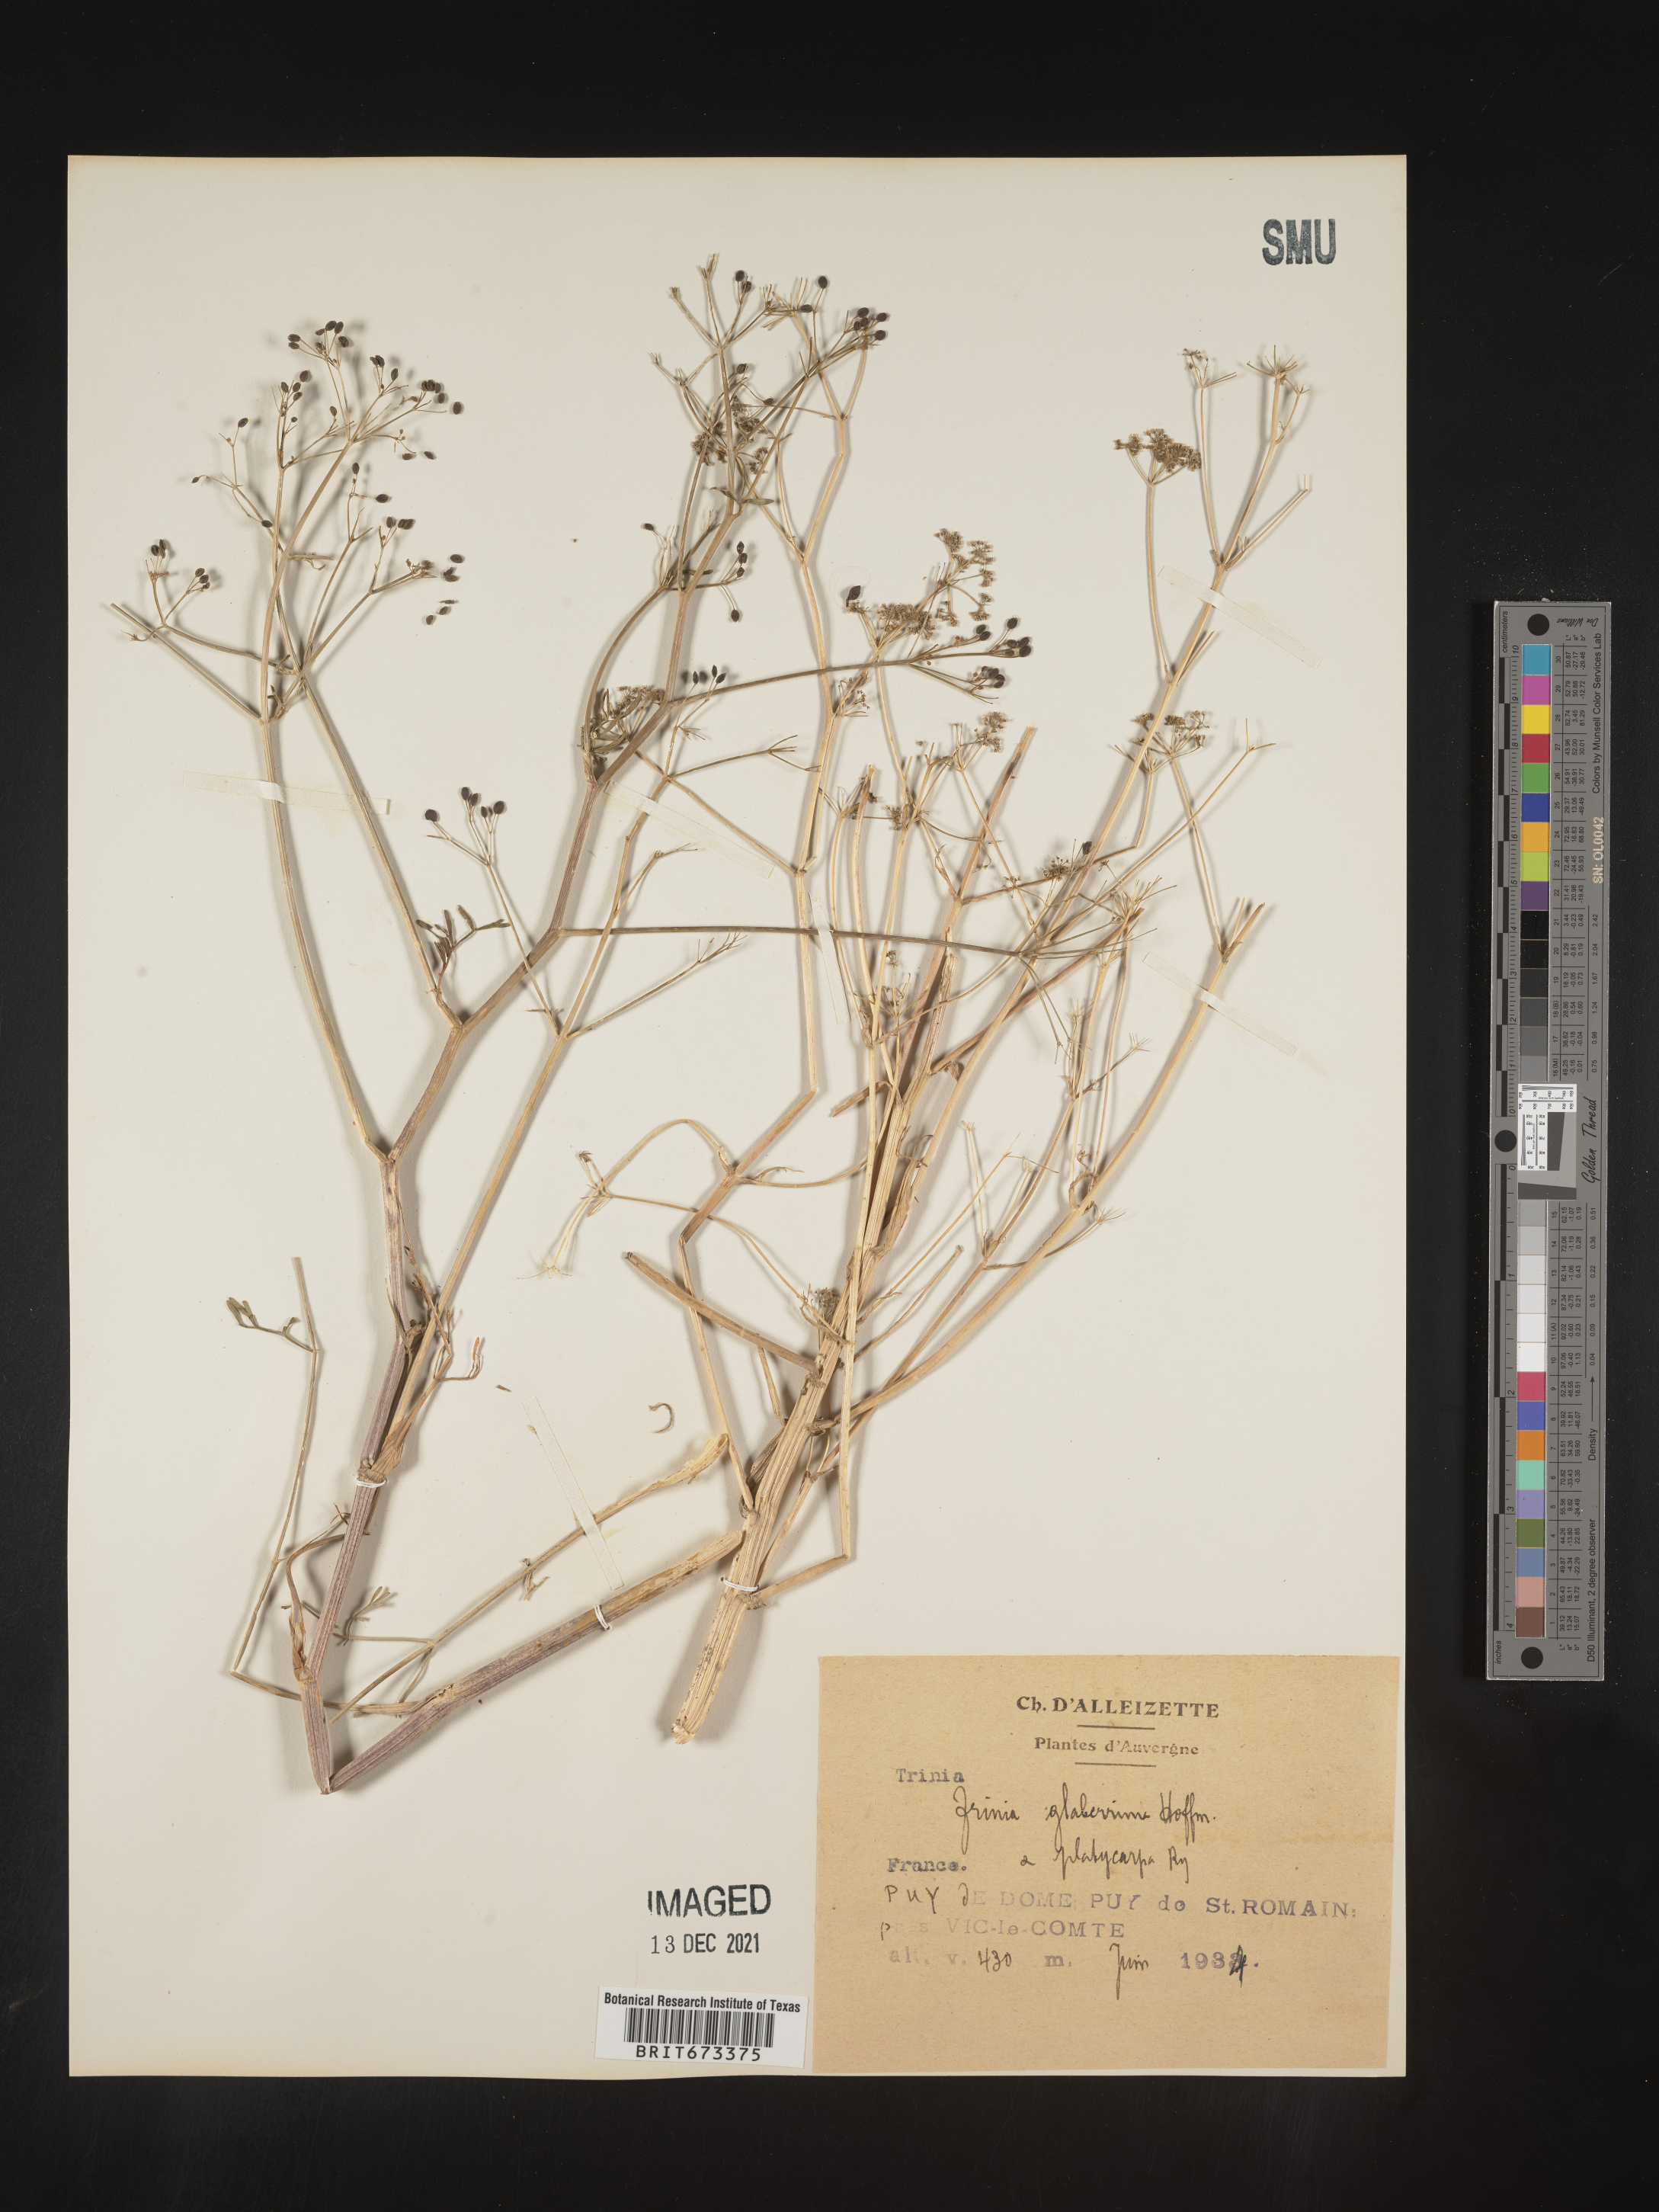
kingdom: Plantae
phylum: Tracheophyta
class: Magnoliopsida
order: Apiales
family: Apiaceae
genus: Trinia
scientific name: Trinia
